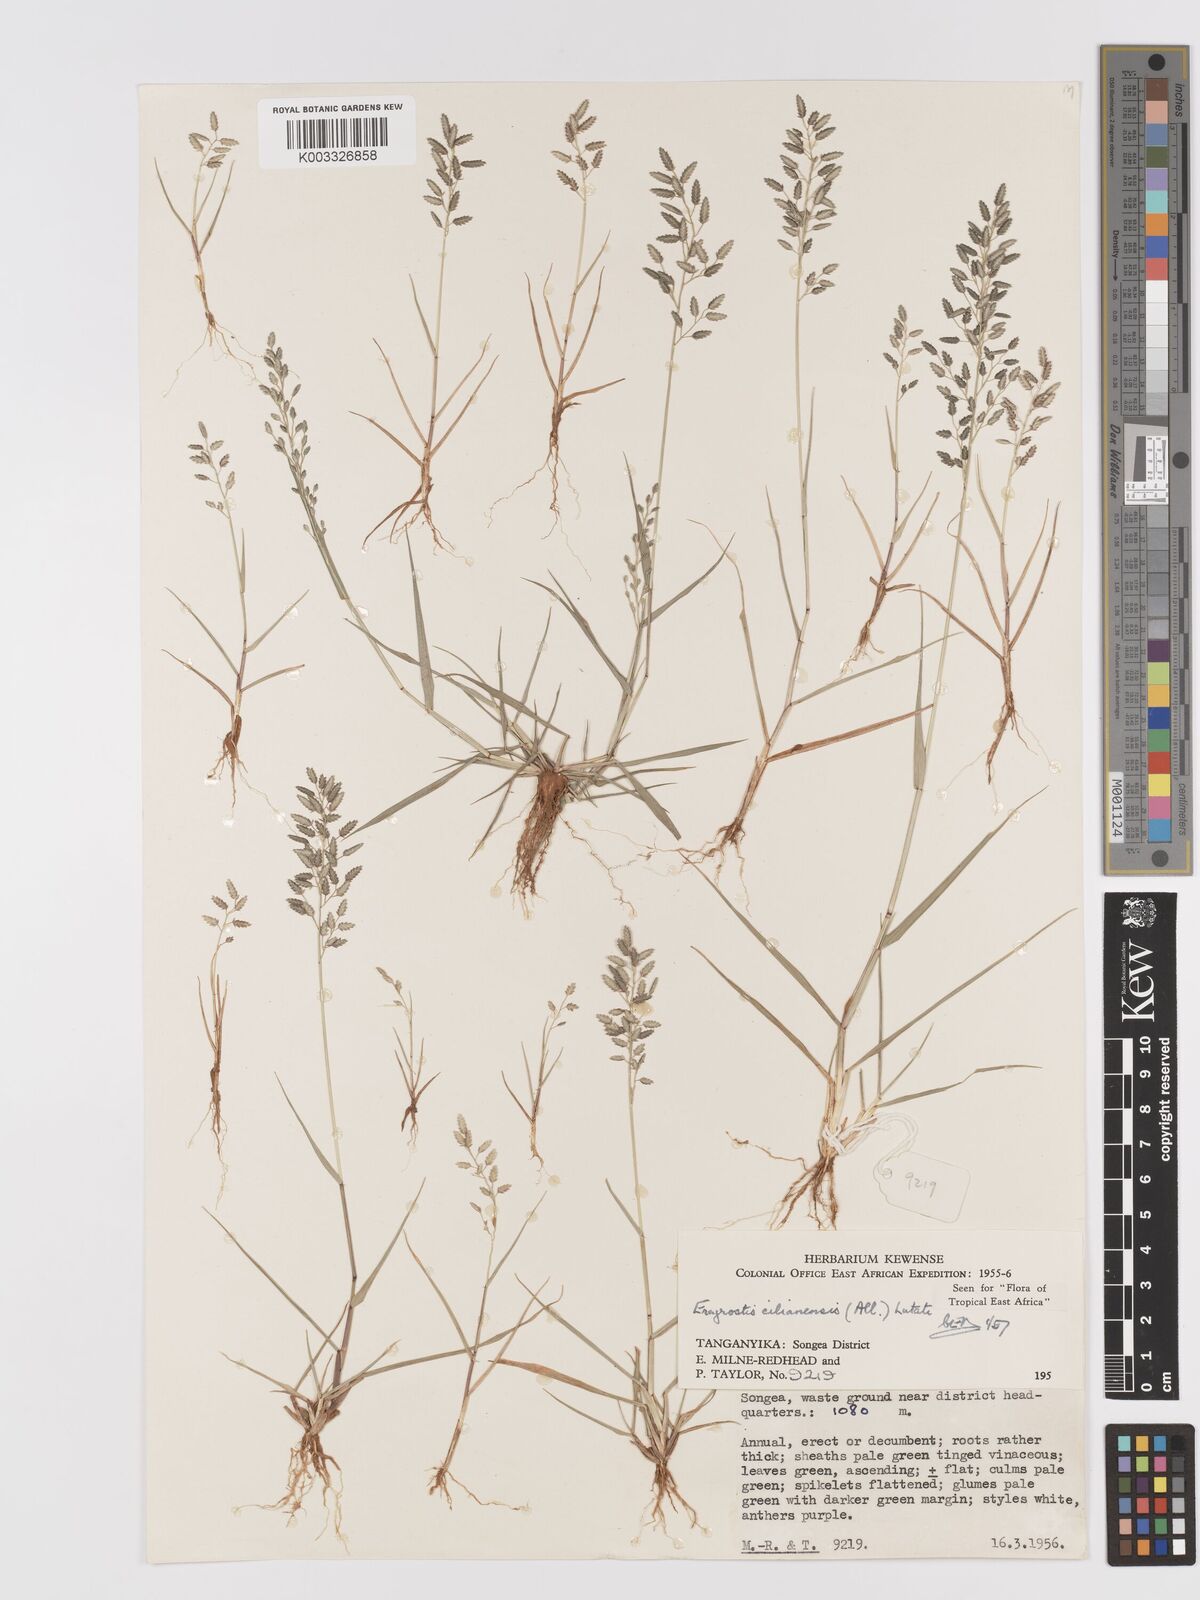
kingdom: Plantae
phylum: Tracheophyta
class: Liliopsida
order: Poales
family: Poaceae
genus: Eragrostis
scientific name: Eragrostis cilianensis
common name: Stinkgrass
